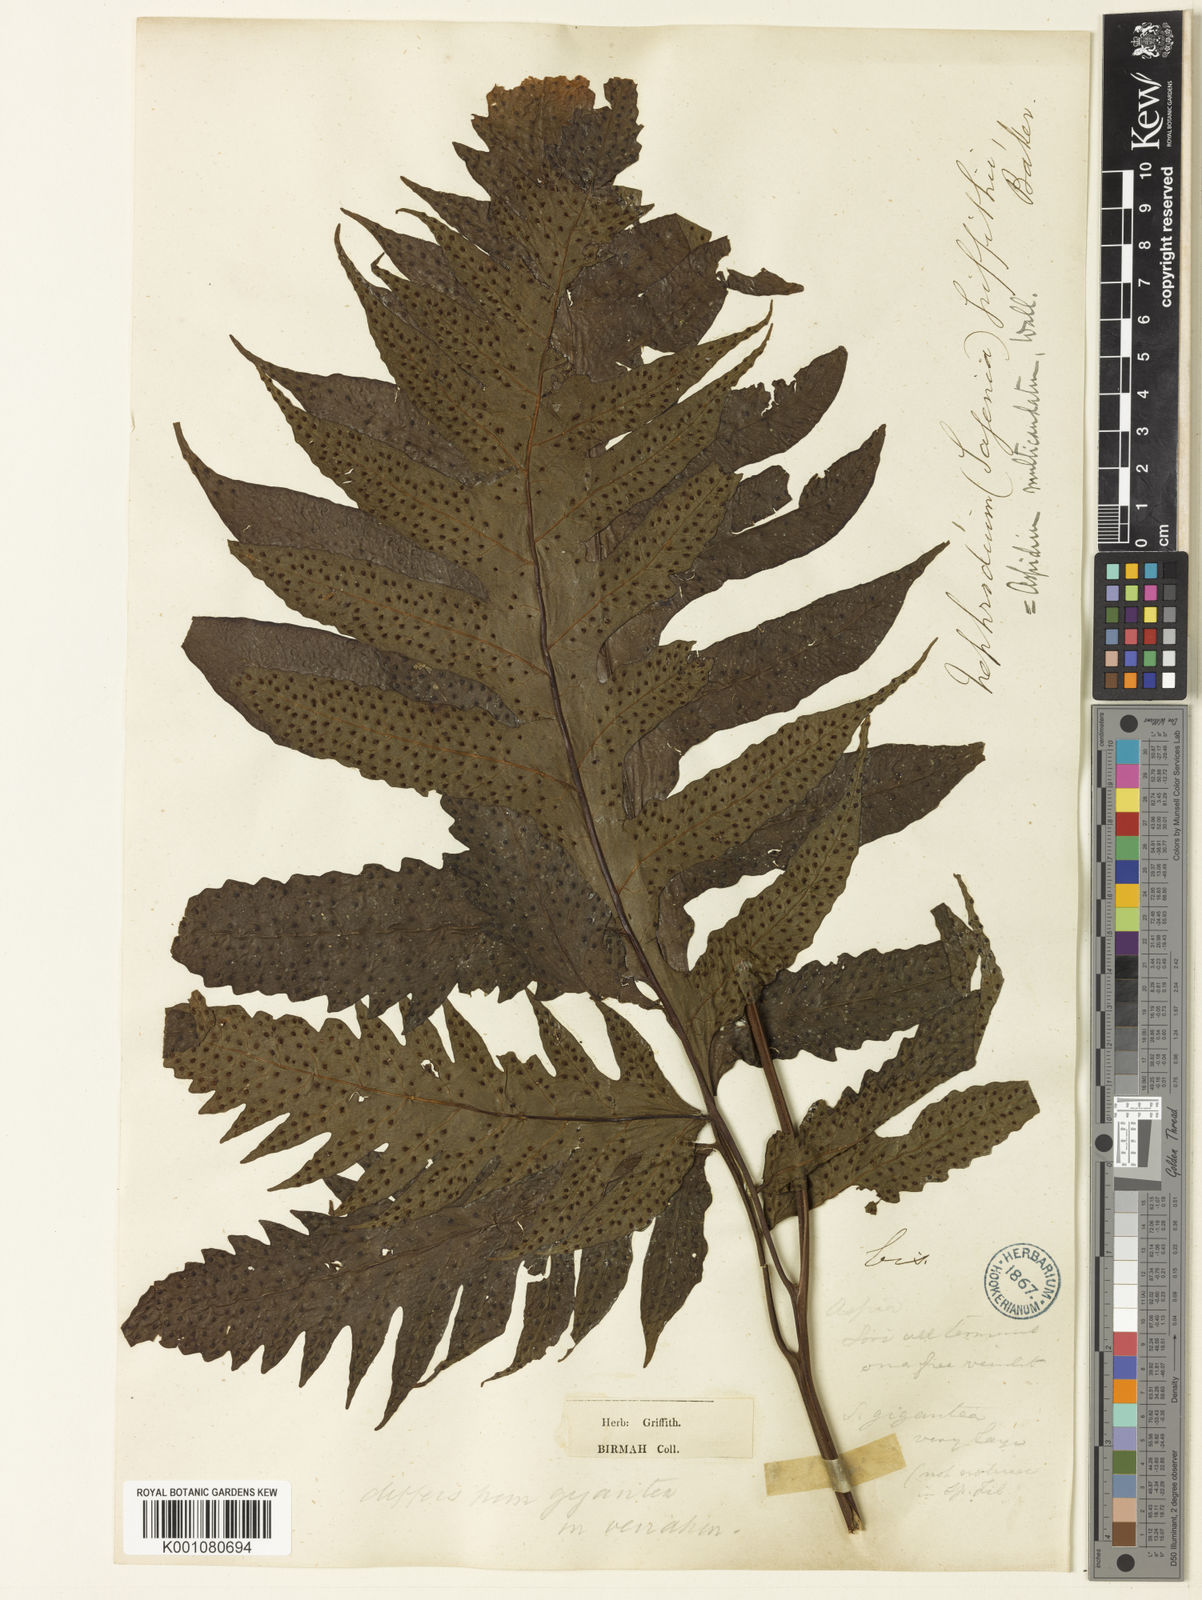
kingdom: Plantae
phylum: Tracheophyta
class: Polypodiopsida
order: Polypodiales
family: Tectariaceae
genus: Tectaria
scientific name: Tectaria griffithii
